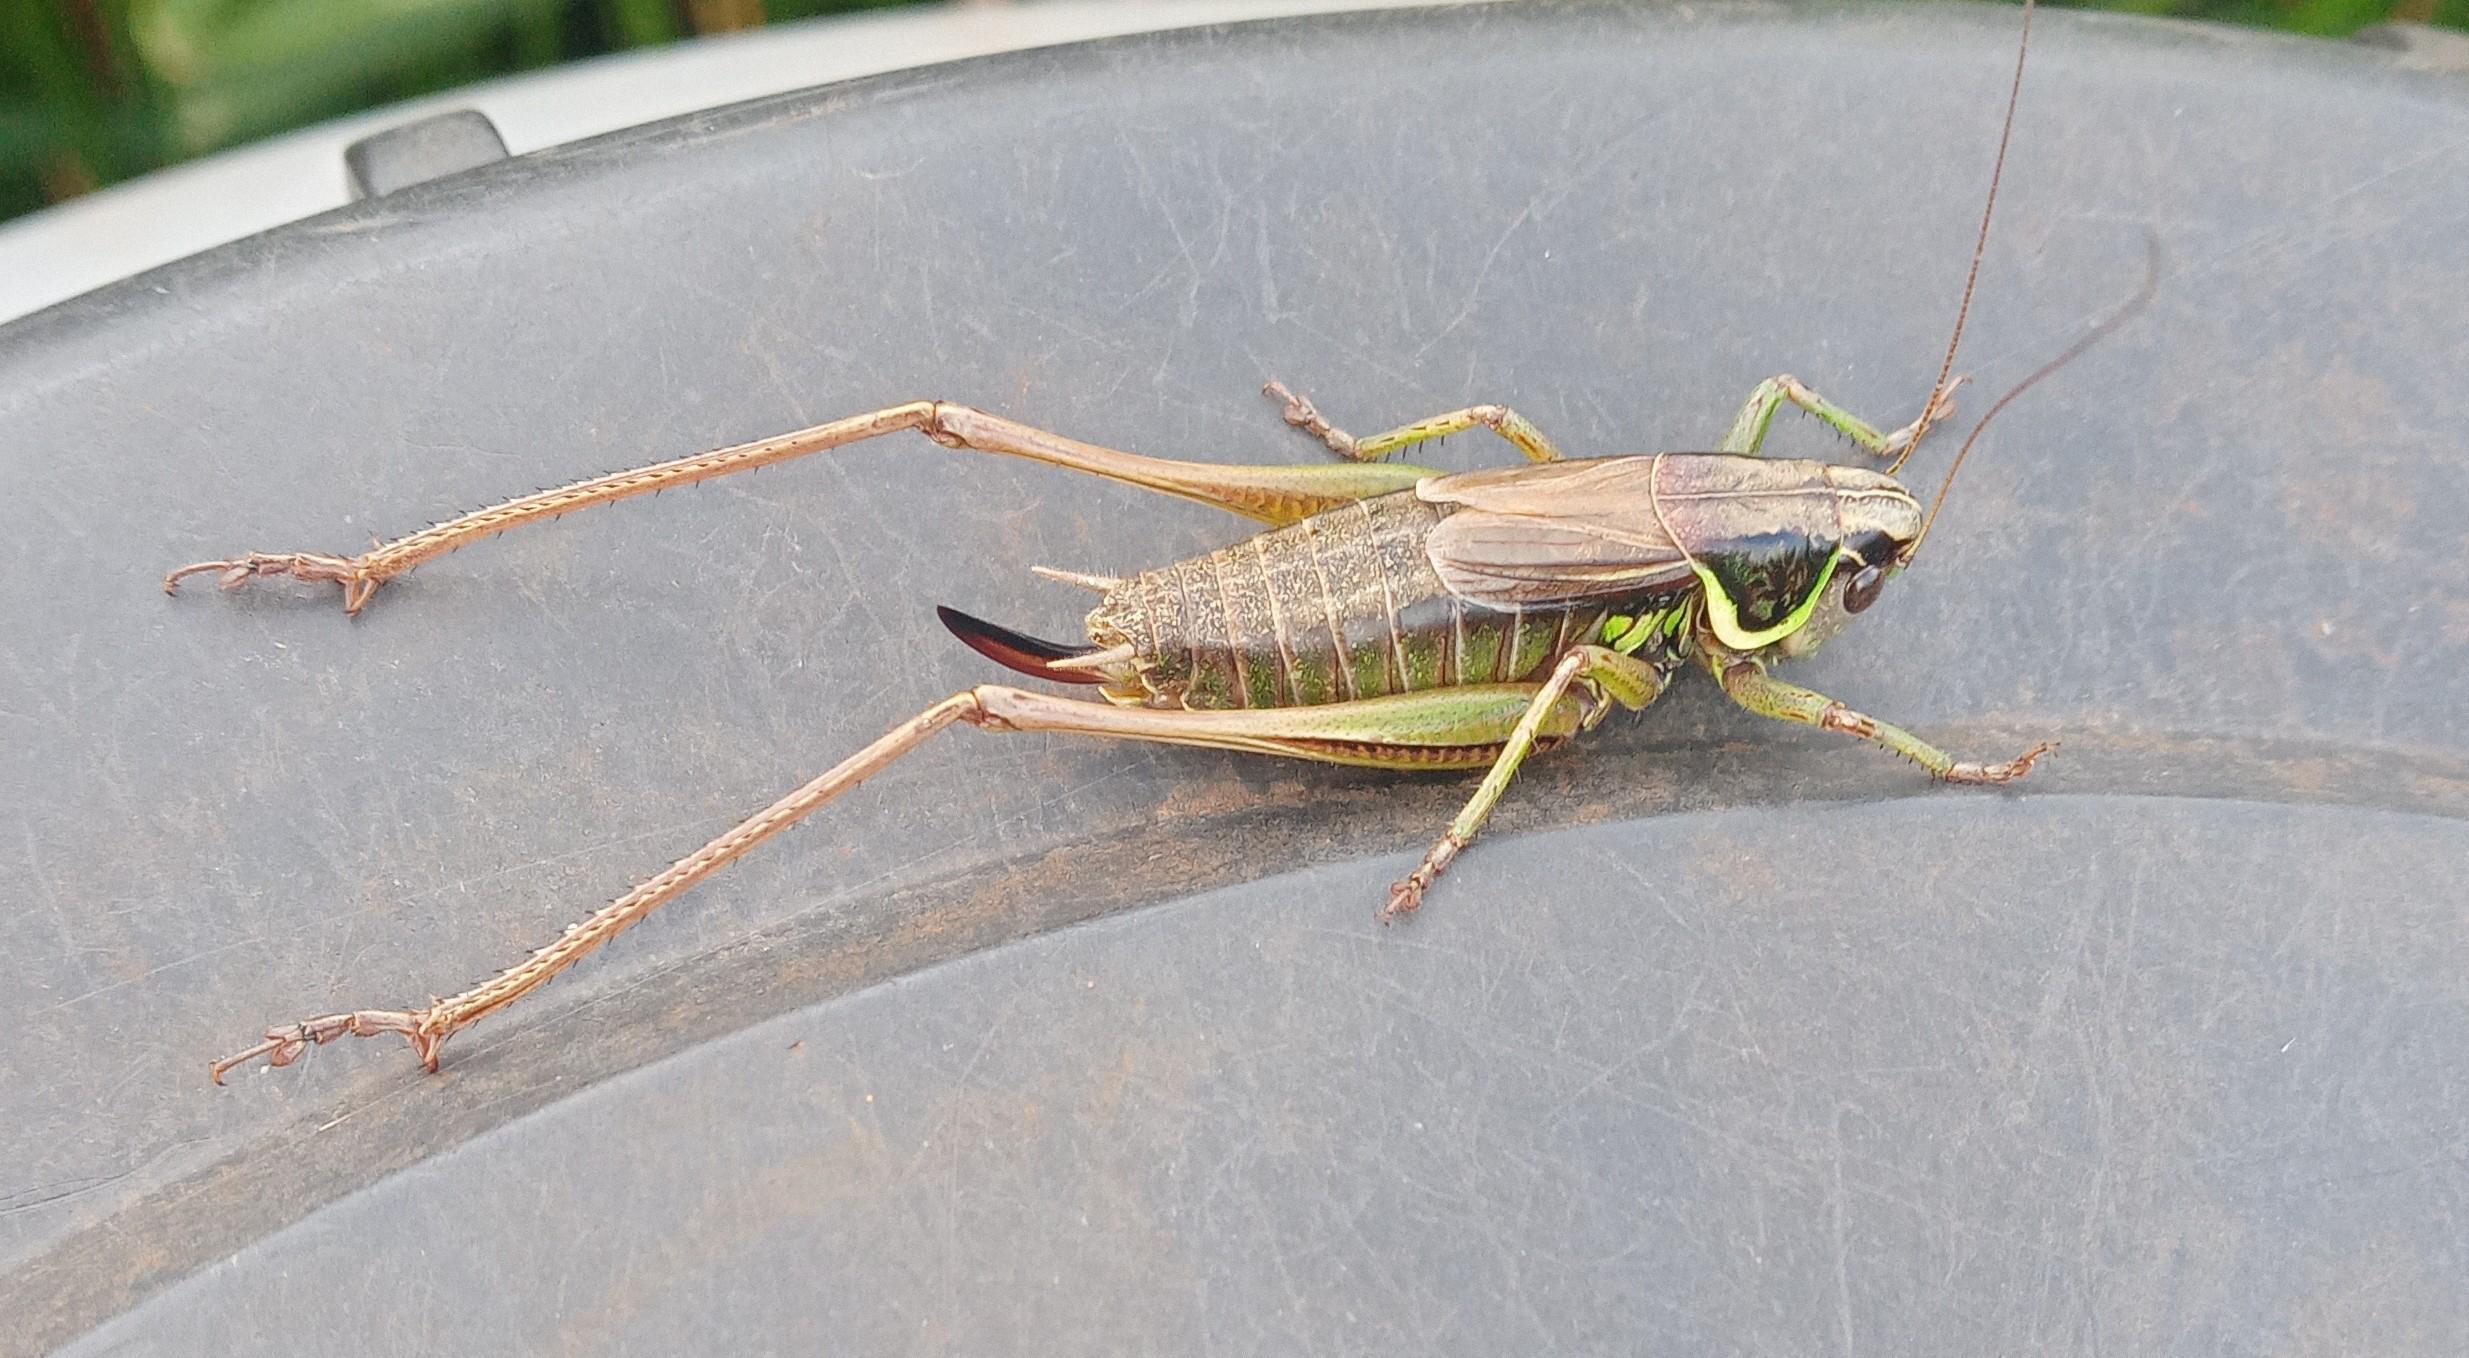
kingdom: Animalia
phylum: Arthropoda
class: Insecta
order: Orthoptera
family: Tettigoniidae
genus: Roeseliana
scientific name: Roeseliana roeselii
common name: Cikadegræshoppe
